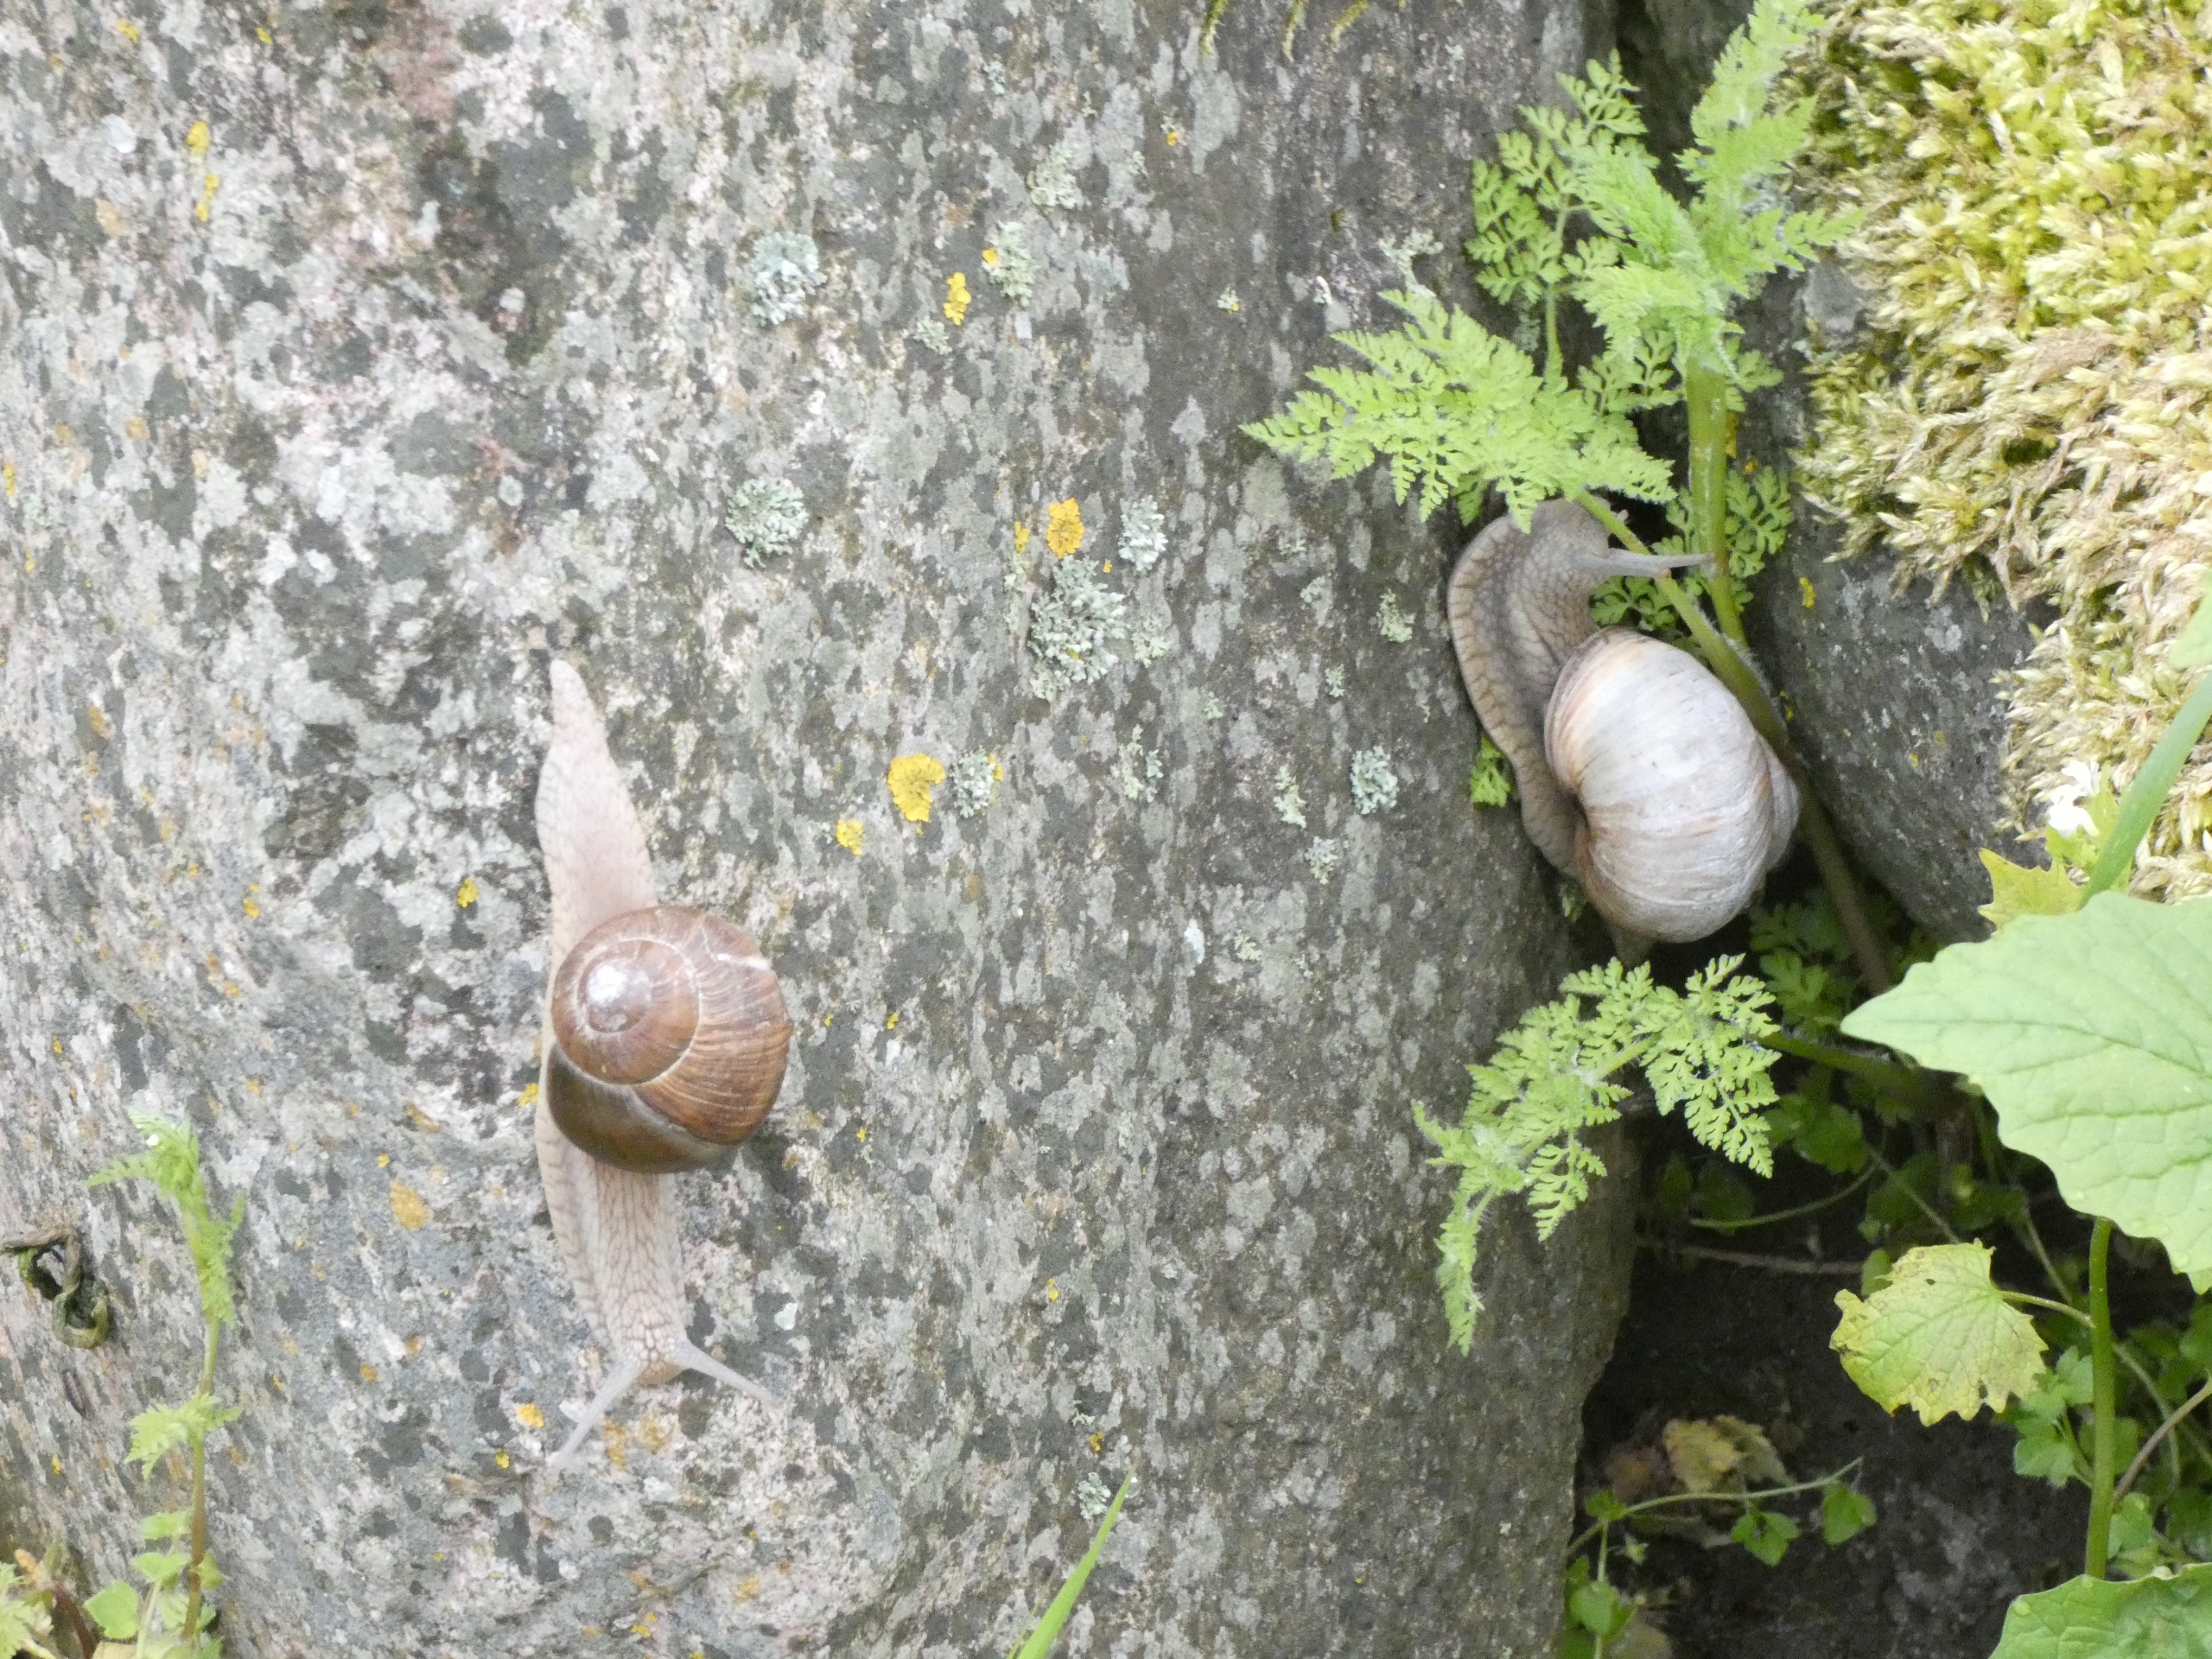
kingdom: Animalia
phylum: Mollusca
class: Gastropoda
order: Stylommatophora
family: Helicidae
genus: Helix
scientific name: Helix pomatia
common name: Vinbjergsnegl
